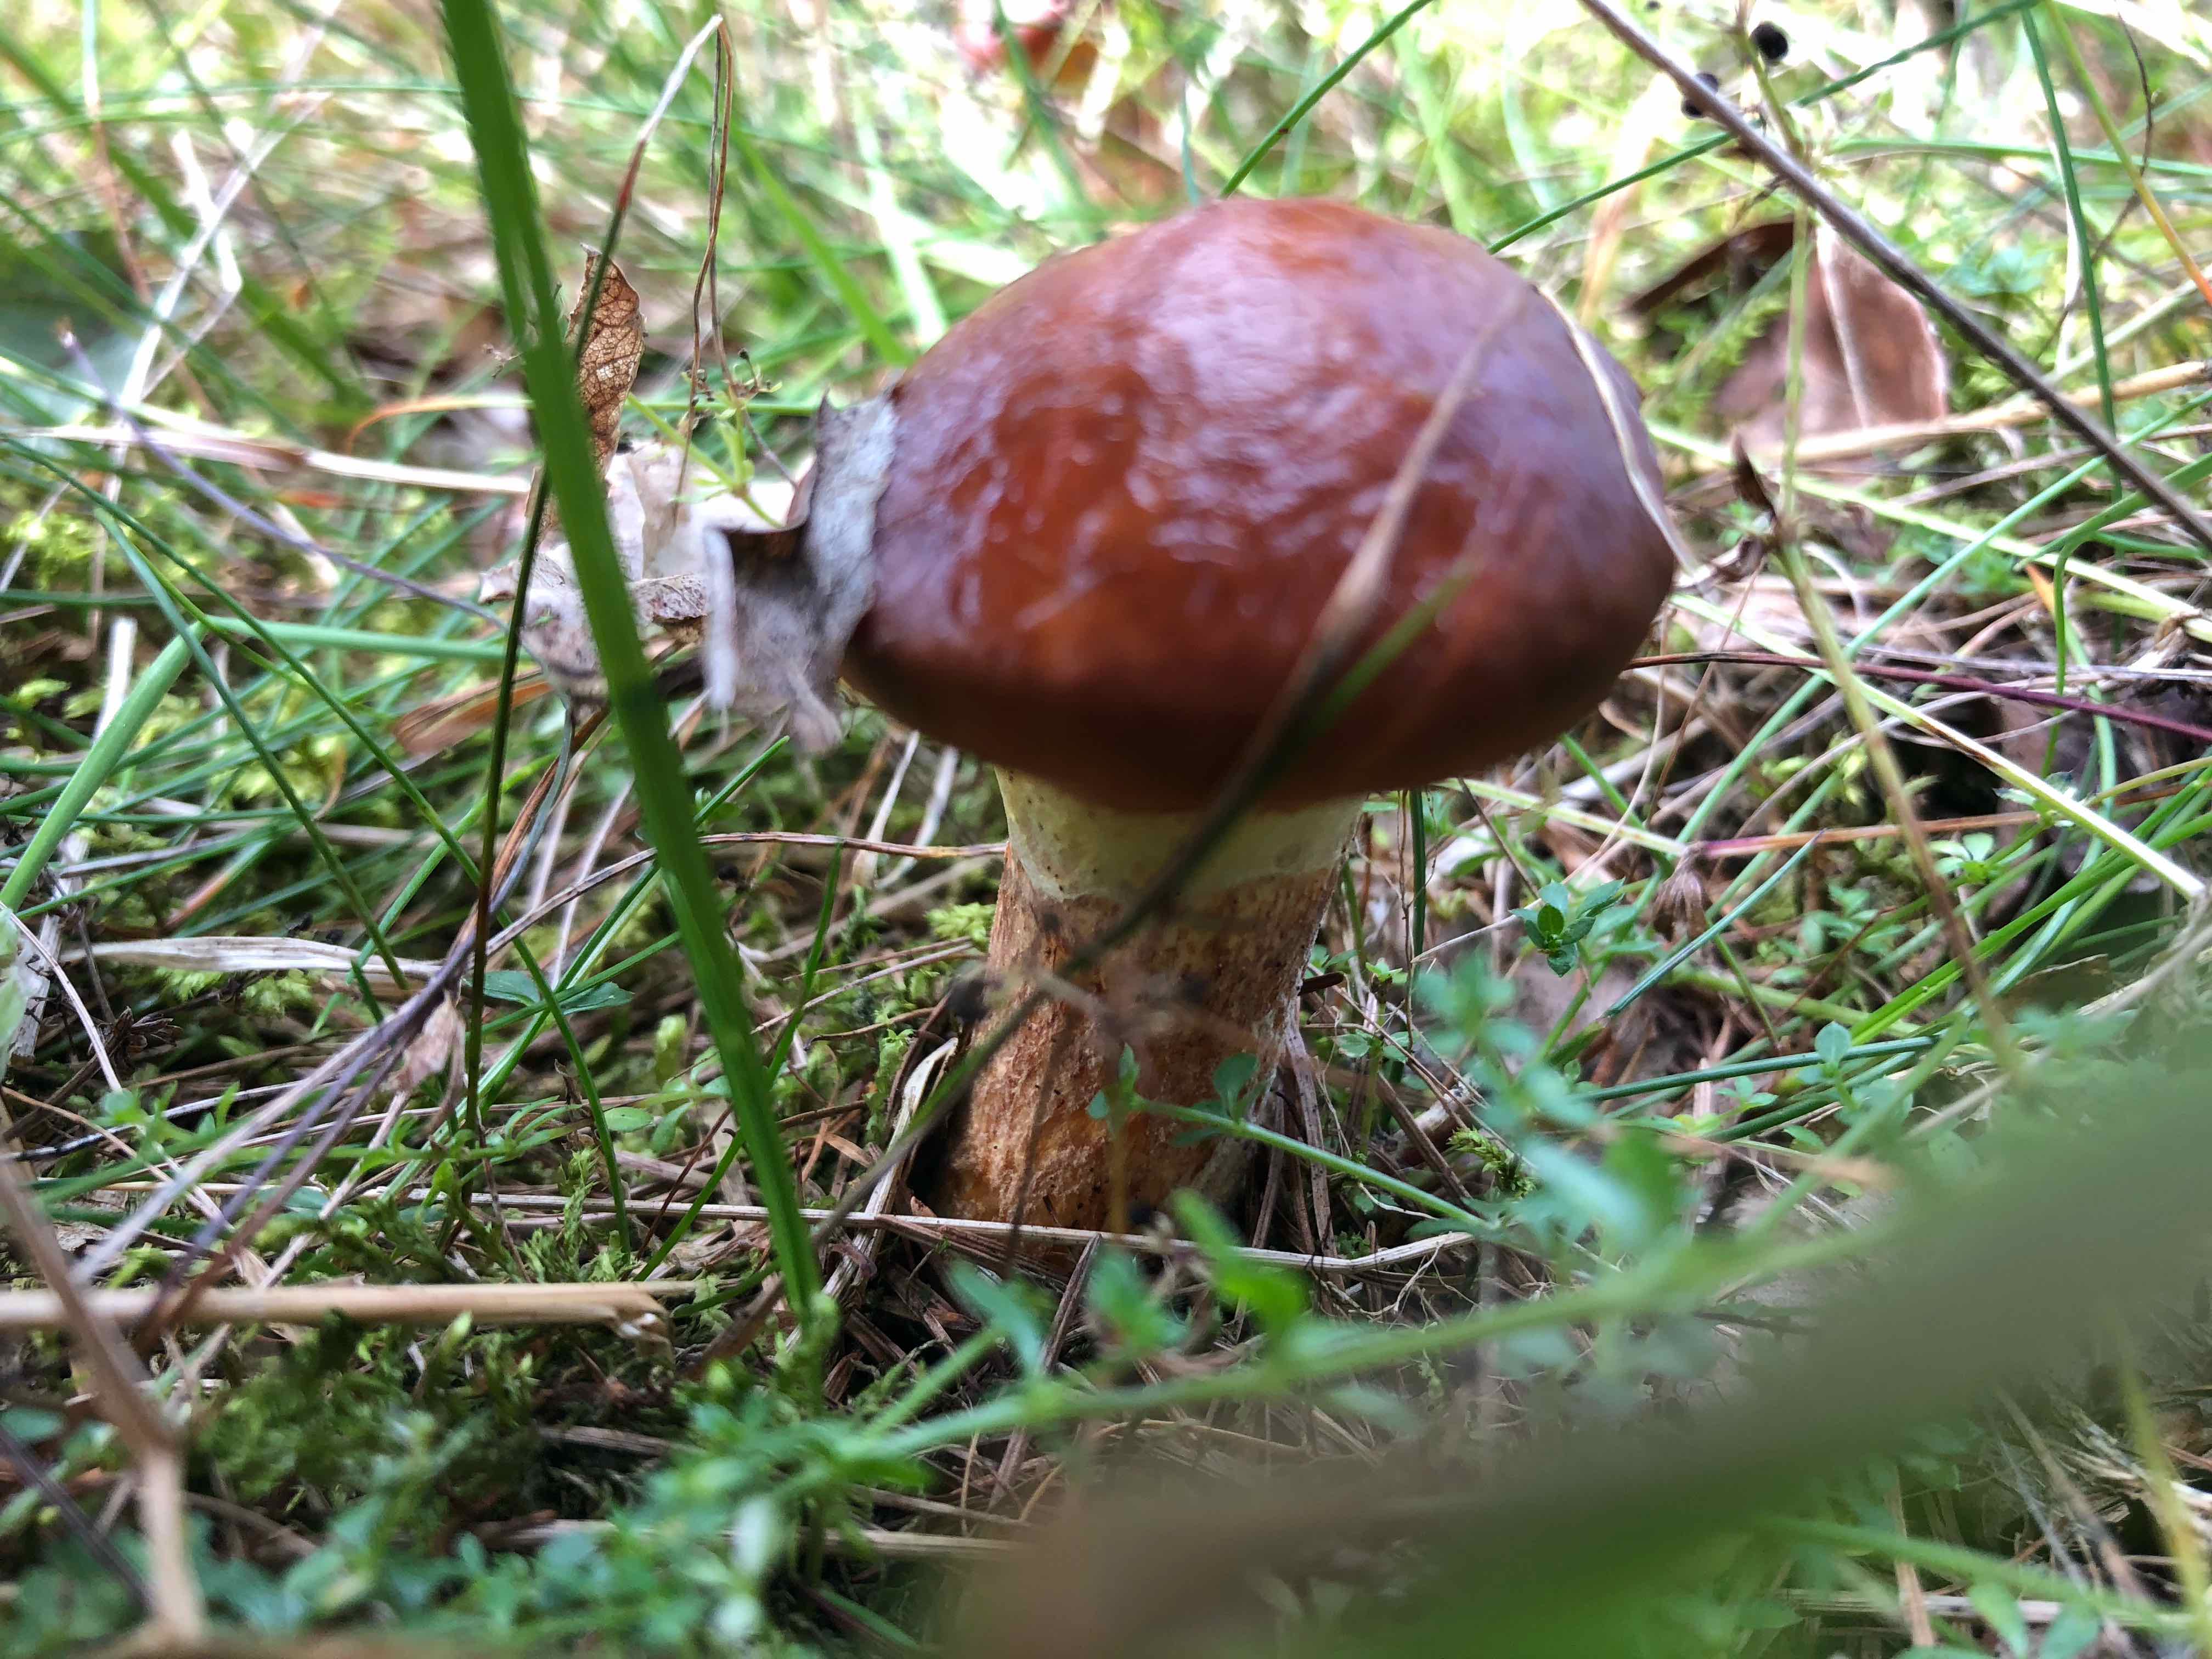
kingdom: Fungi
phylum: Basidiomycota
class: Agaricomycetes
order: Boletales
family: Suillaceae
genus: Suillus
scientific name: Suillus grevillei
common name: lærke-slimrørhat
